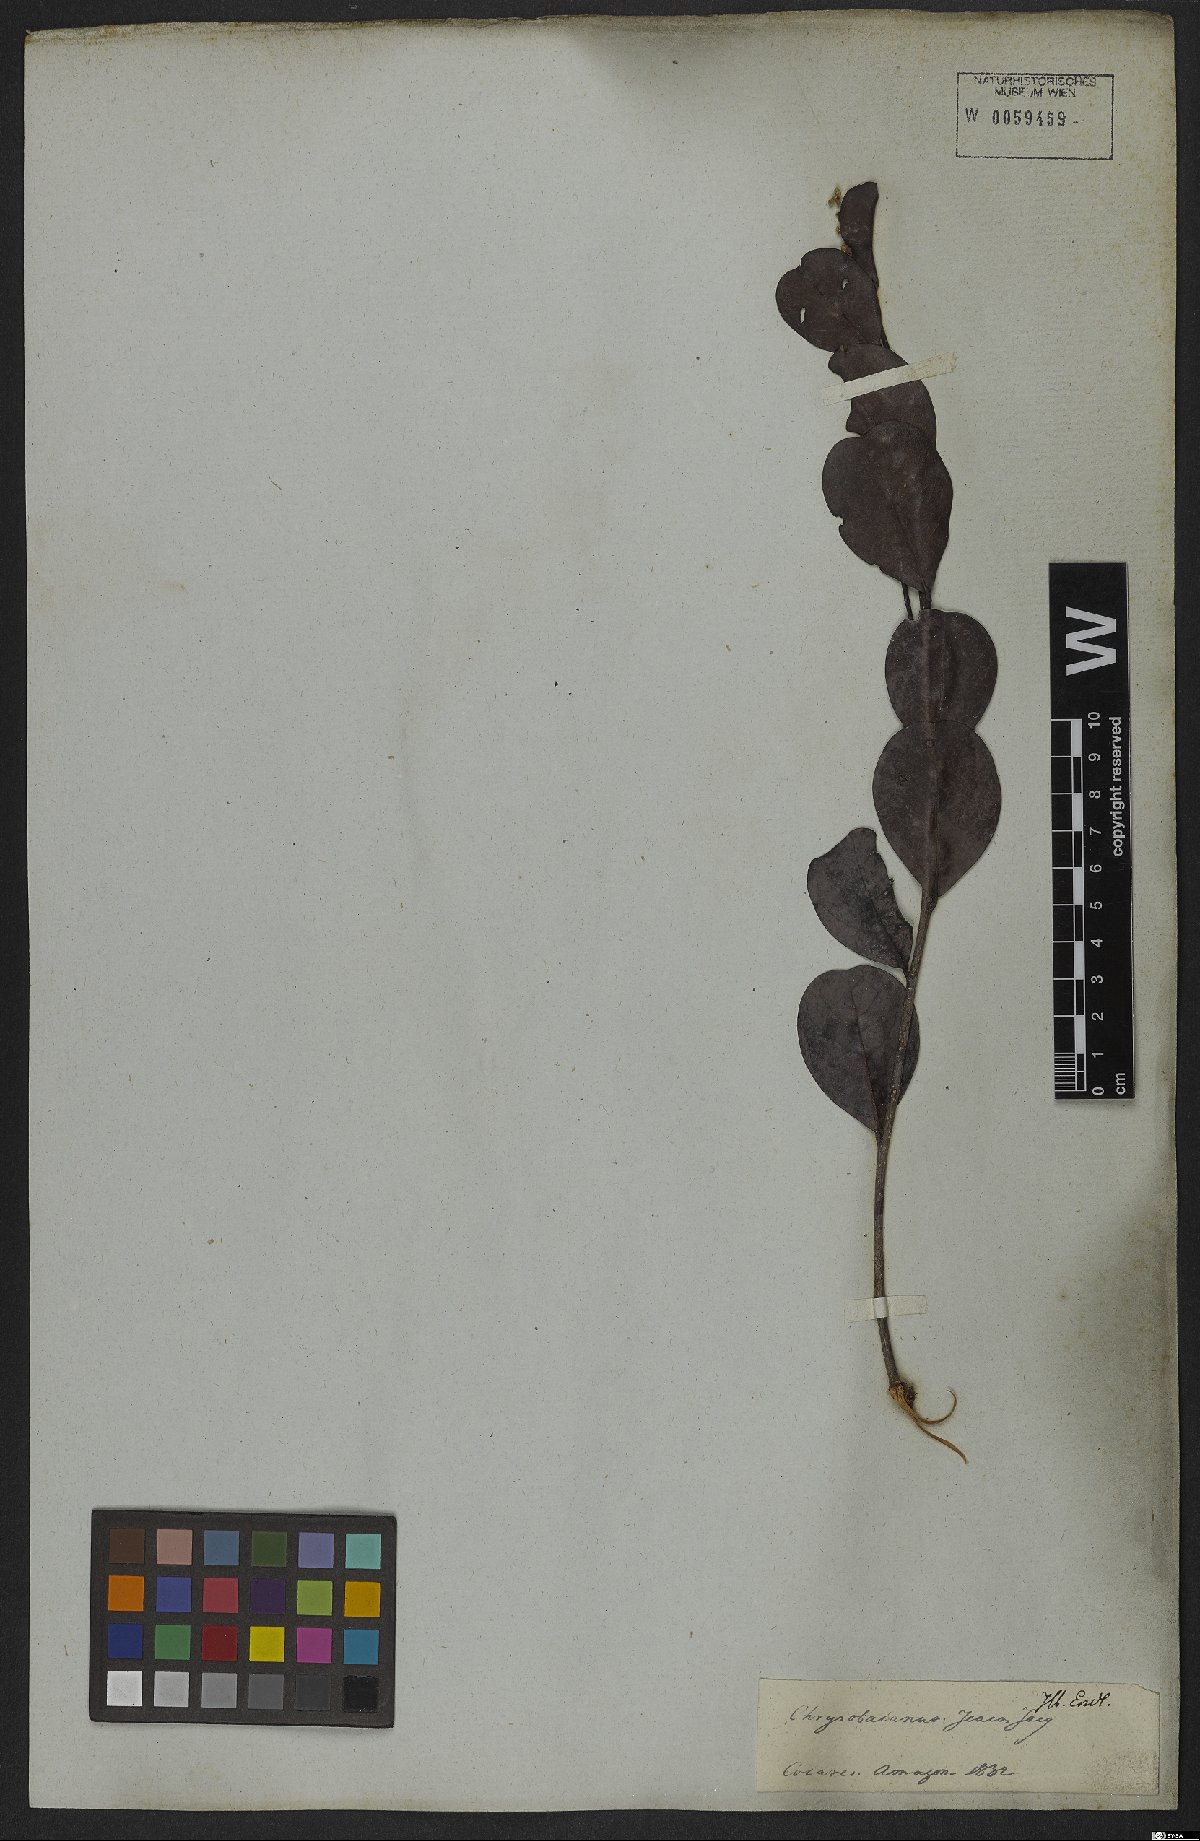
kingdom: Plantae
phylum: Tracheophyta
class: Magnoliopsida
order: Malpighiales
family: Chrysobalanaceae
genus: Chrysobalanus
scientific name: Chrysobalanus icaco
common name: Coco plum
